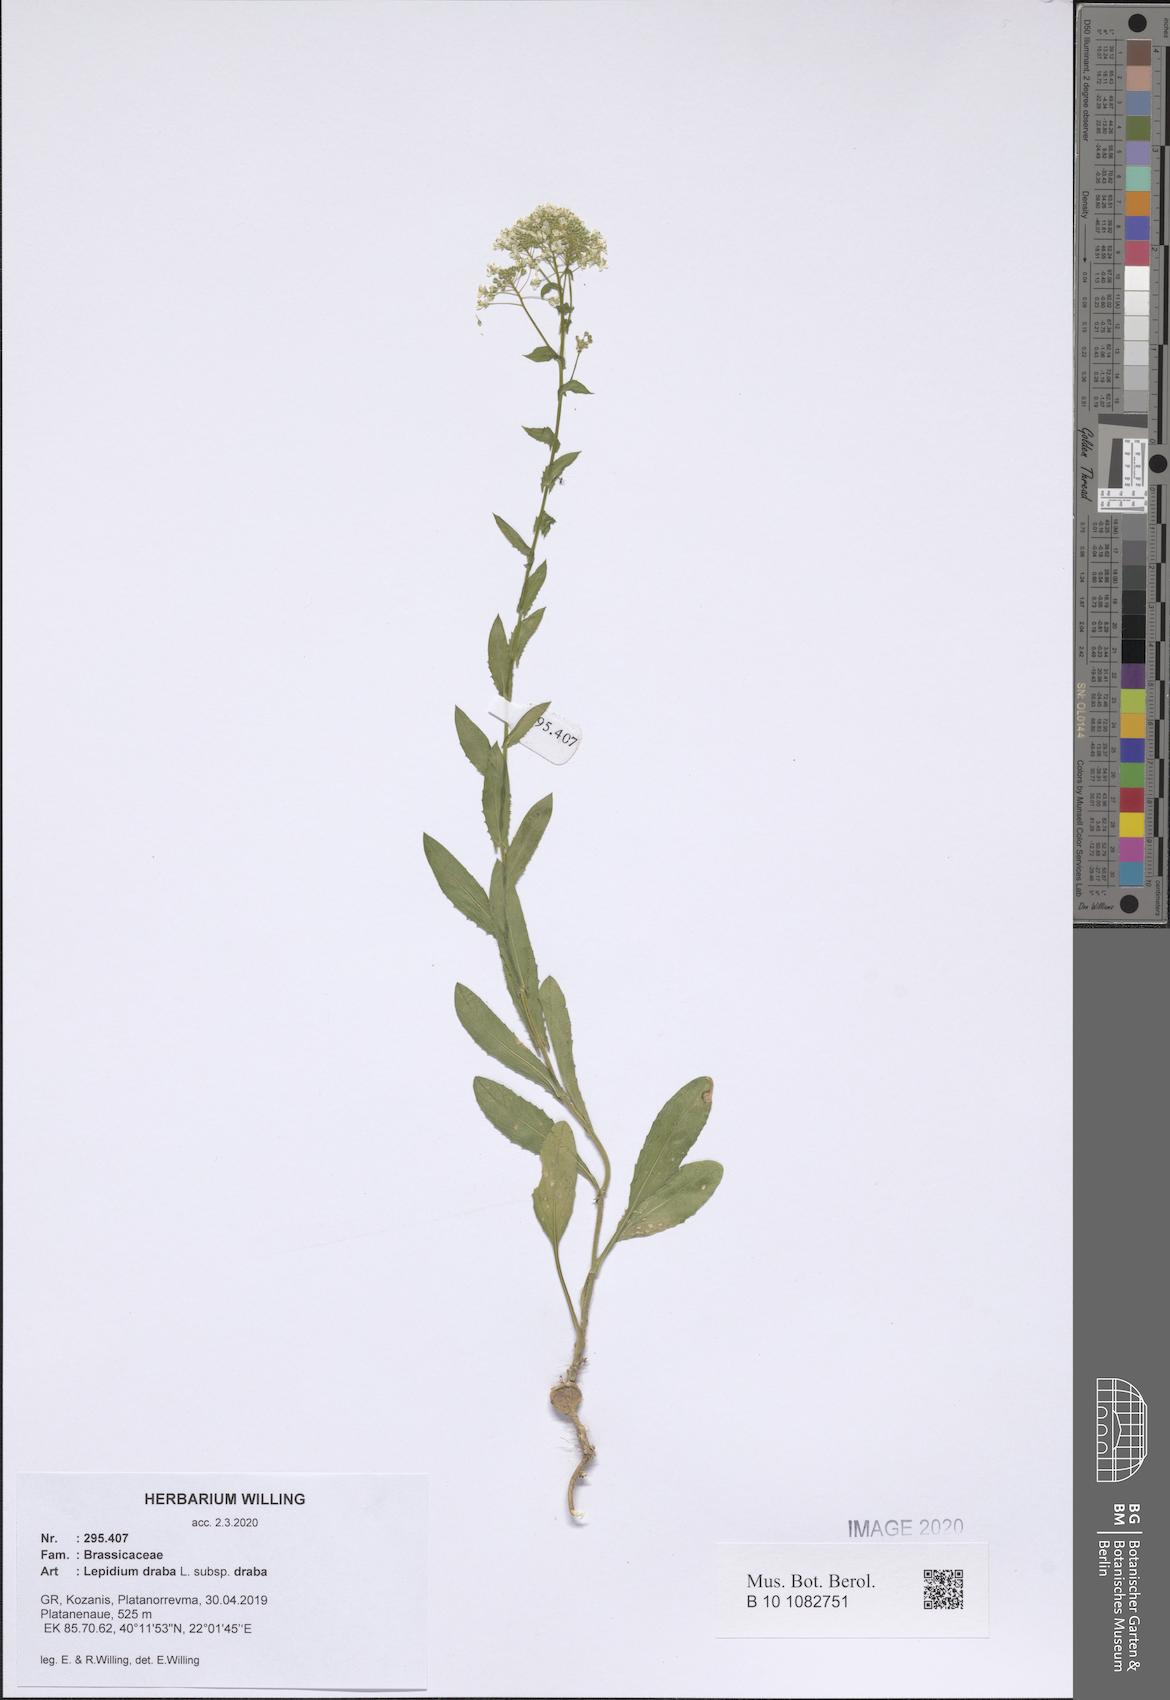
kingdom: Plantae
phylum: Tracheophyta
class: Magnoliopsida
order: Brassicales
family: Brassicaceae
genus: Lepidium
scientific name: Lepidium draba
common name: Hoary cress
